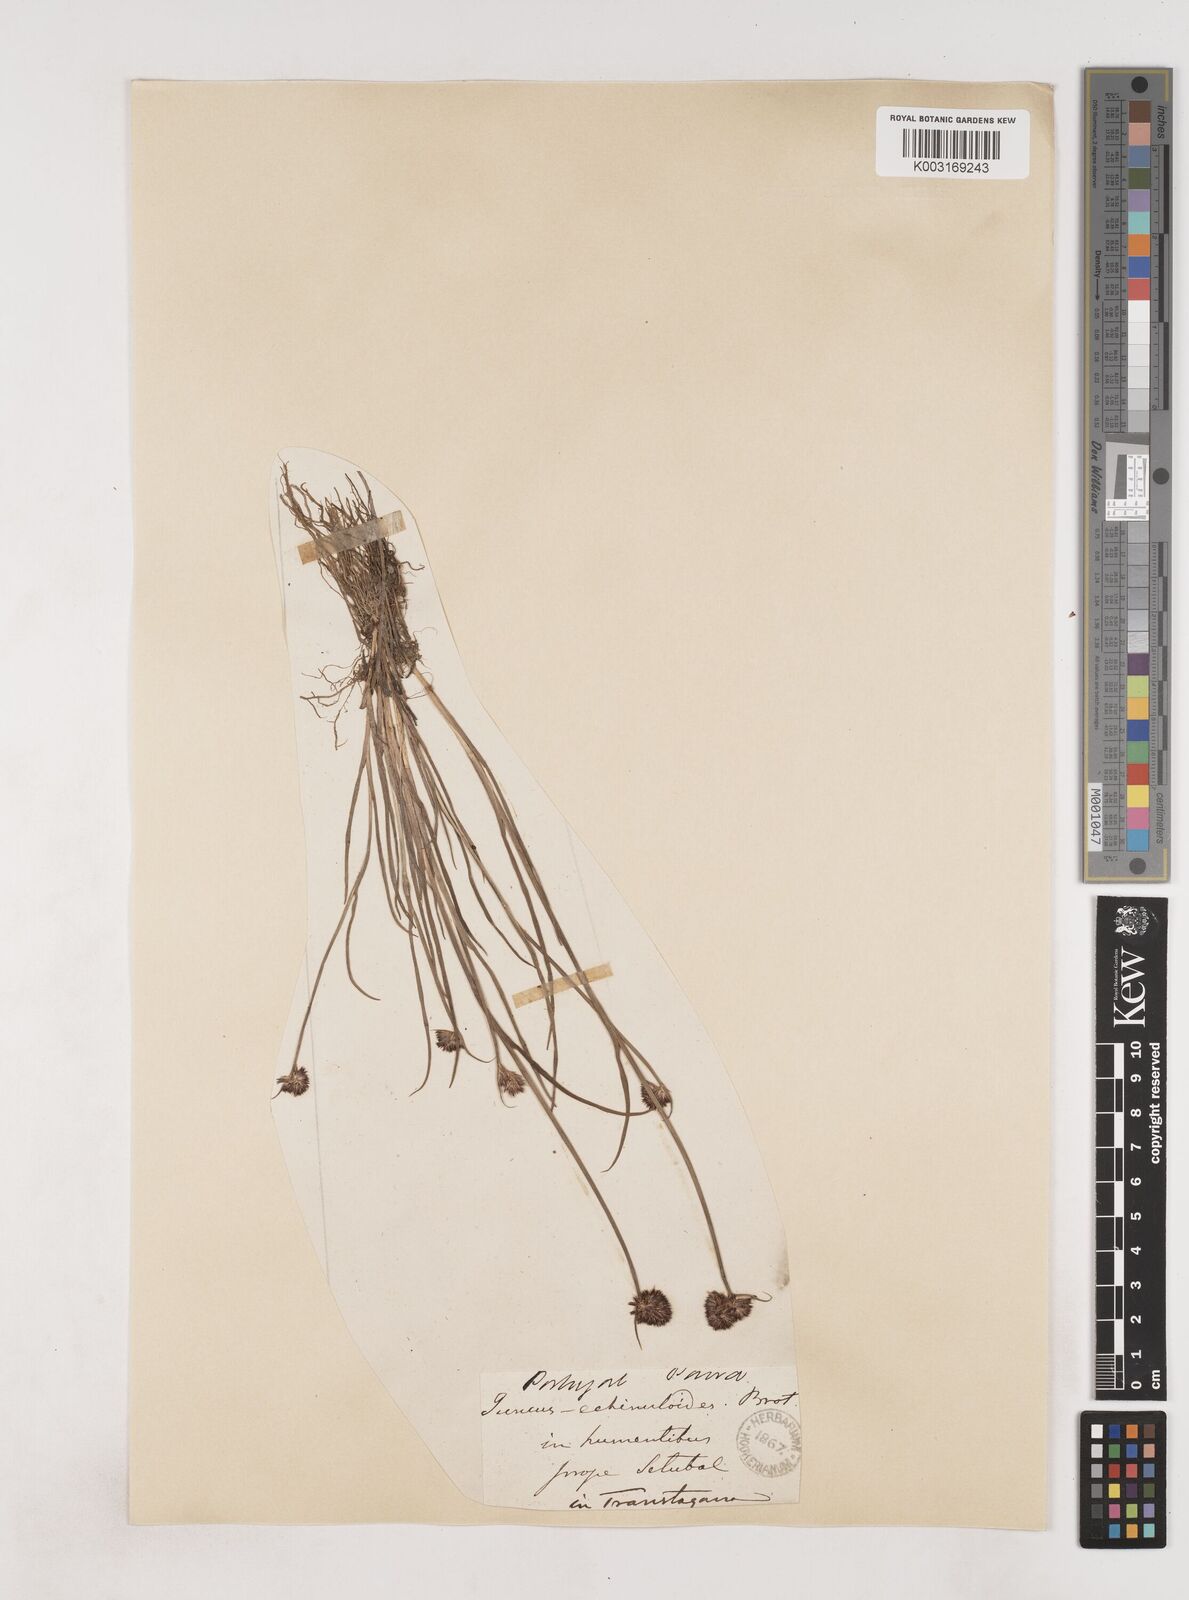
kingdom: Plantae
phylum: Tracheophyta
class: Liliopsida
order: Poales
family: Juncaceae
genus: Juncus
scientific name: Juncus valvatus
